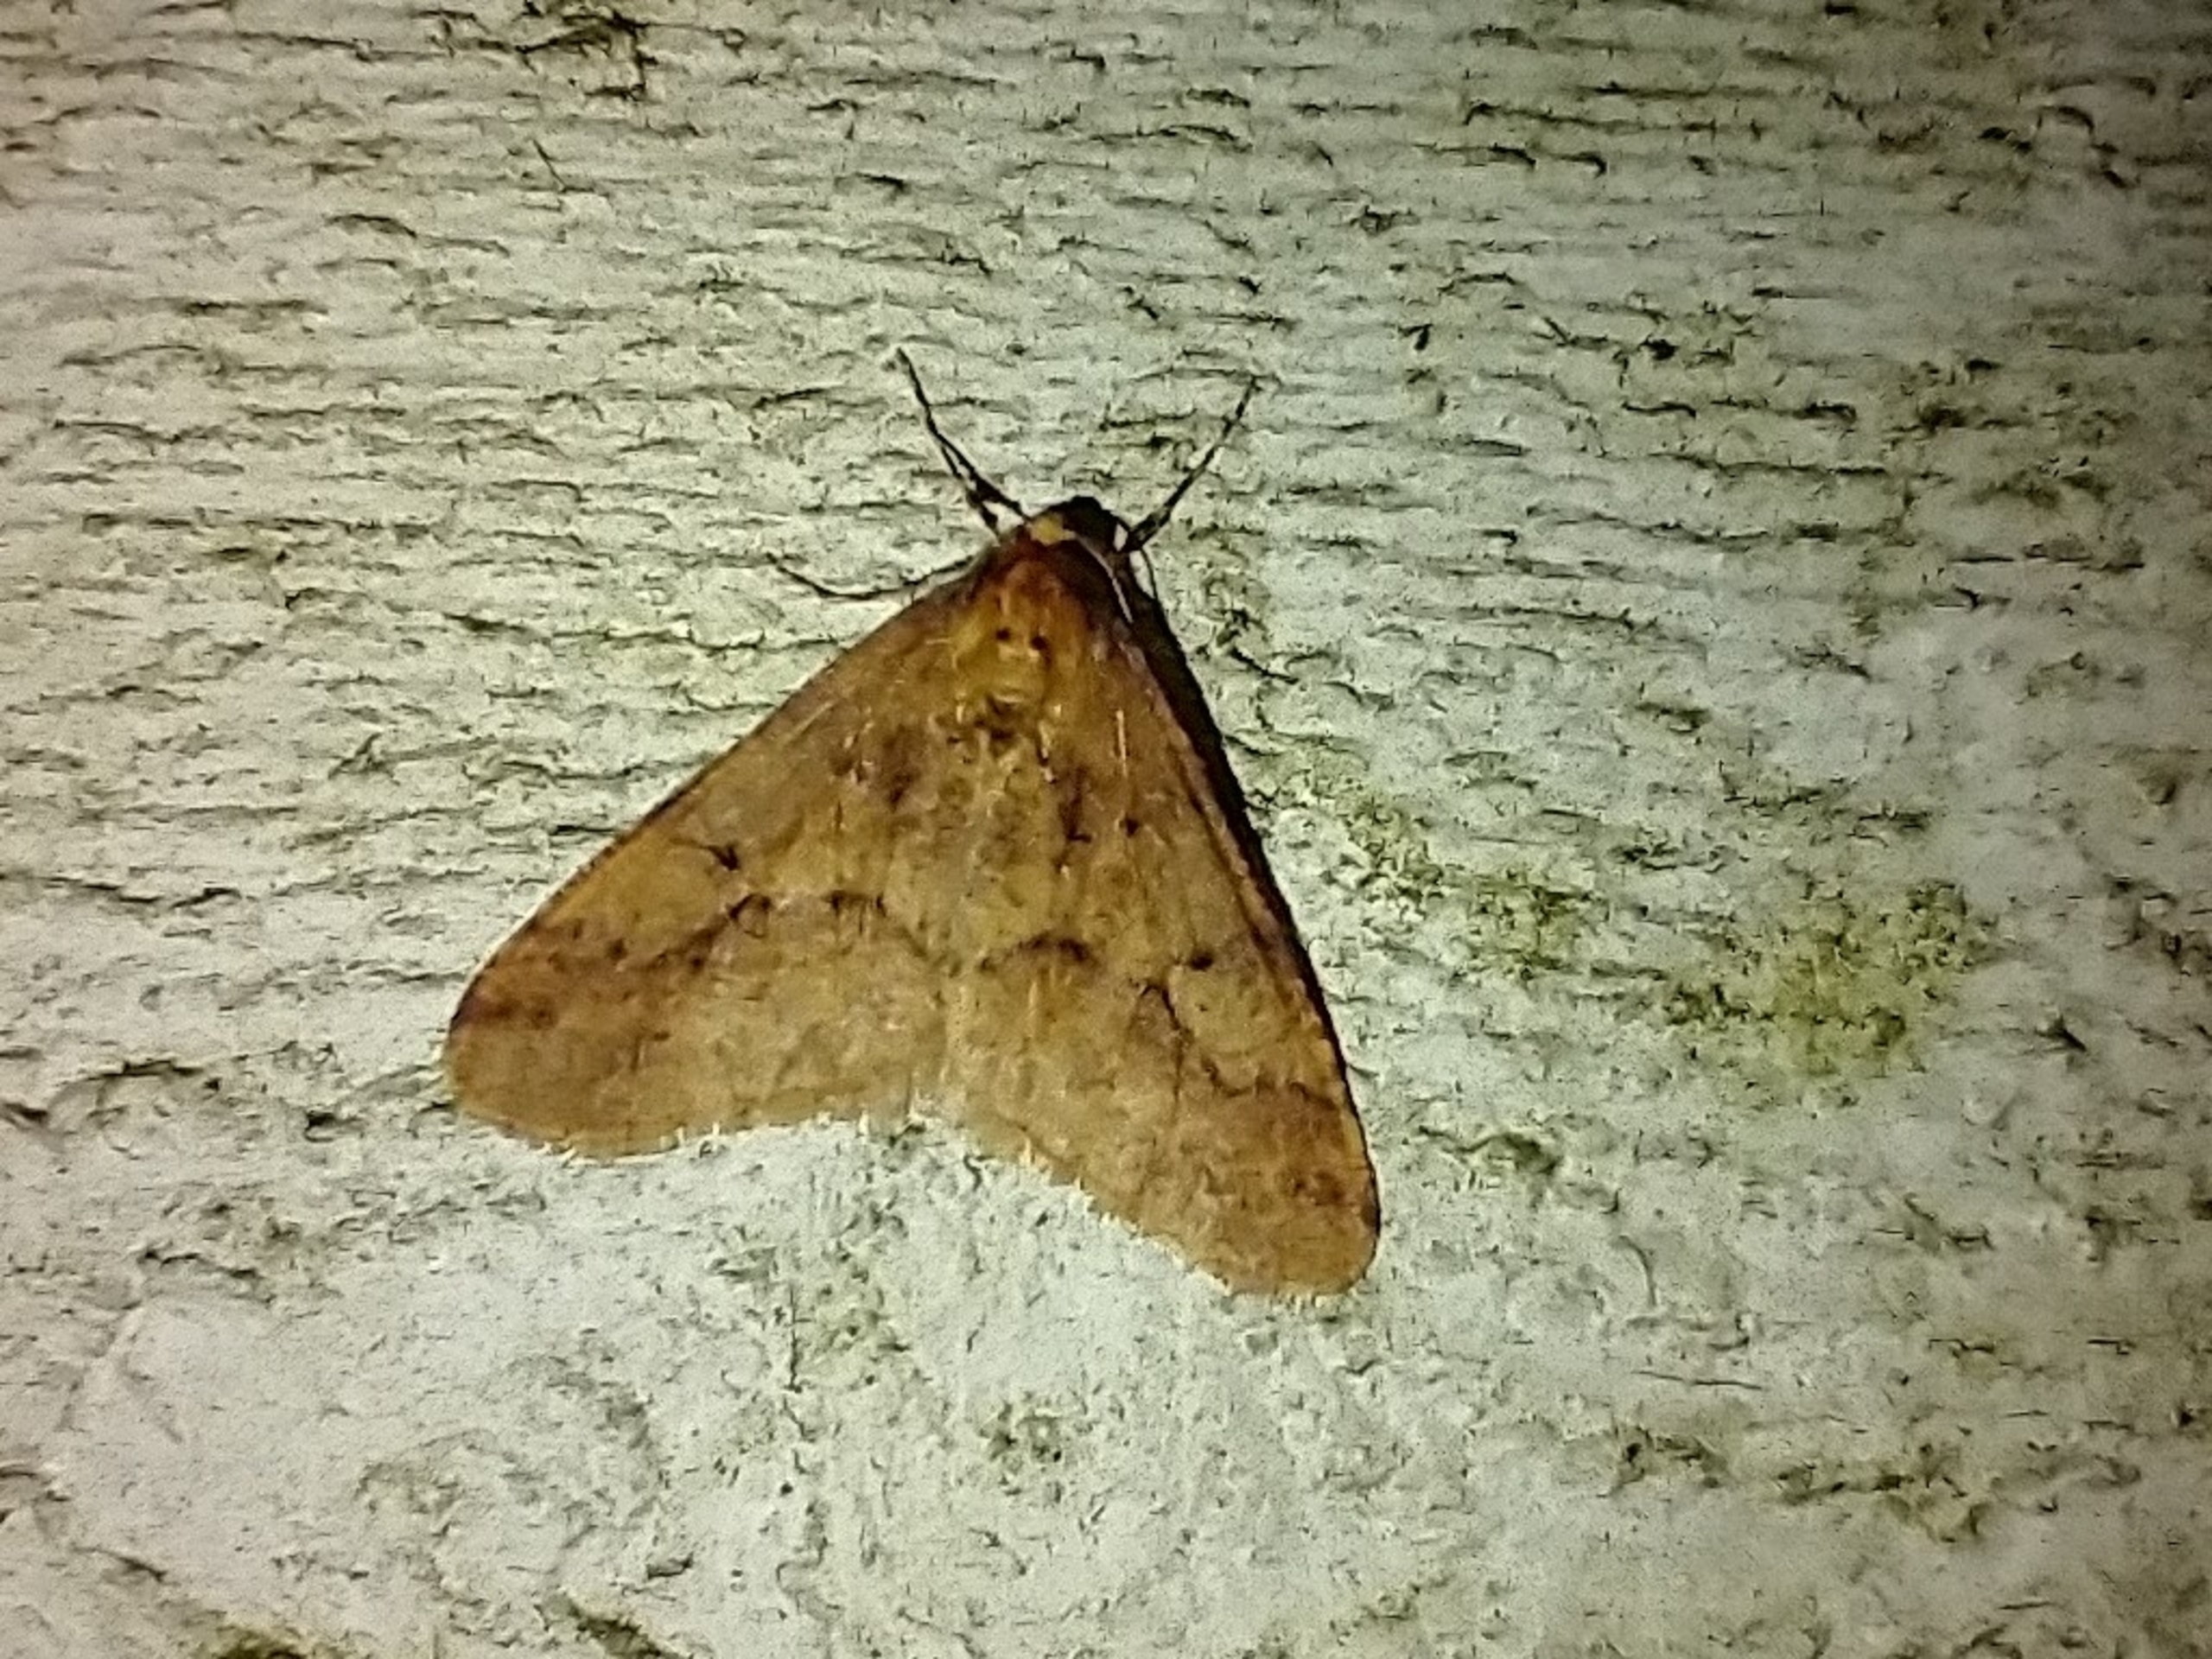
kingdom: Animalia
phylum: Arthropoda
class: Insecta
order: Lepidoptera
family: Geometridae
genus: Erannis
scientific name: Erannis defoliaria
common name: Stor frostmåler
